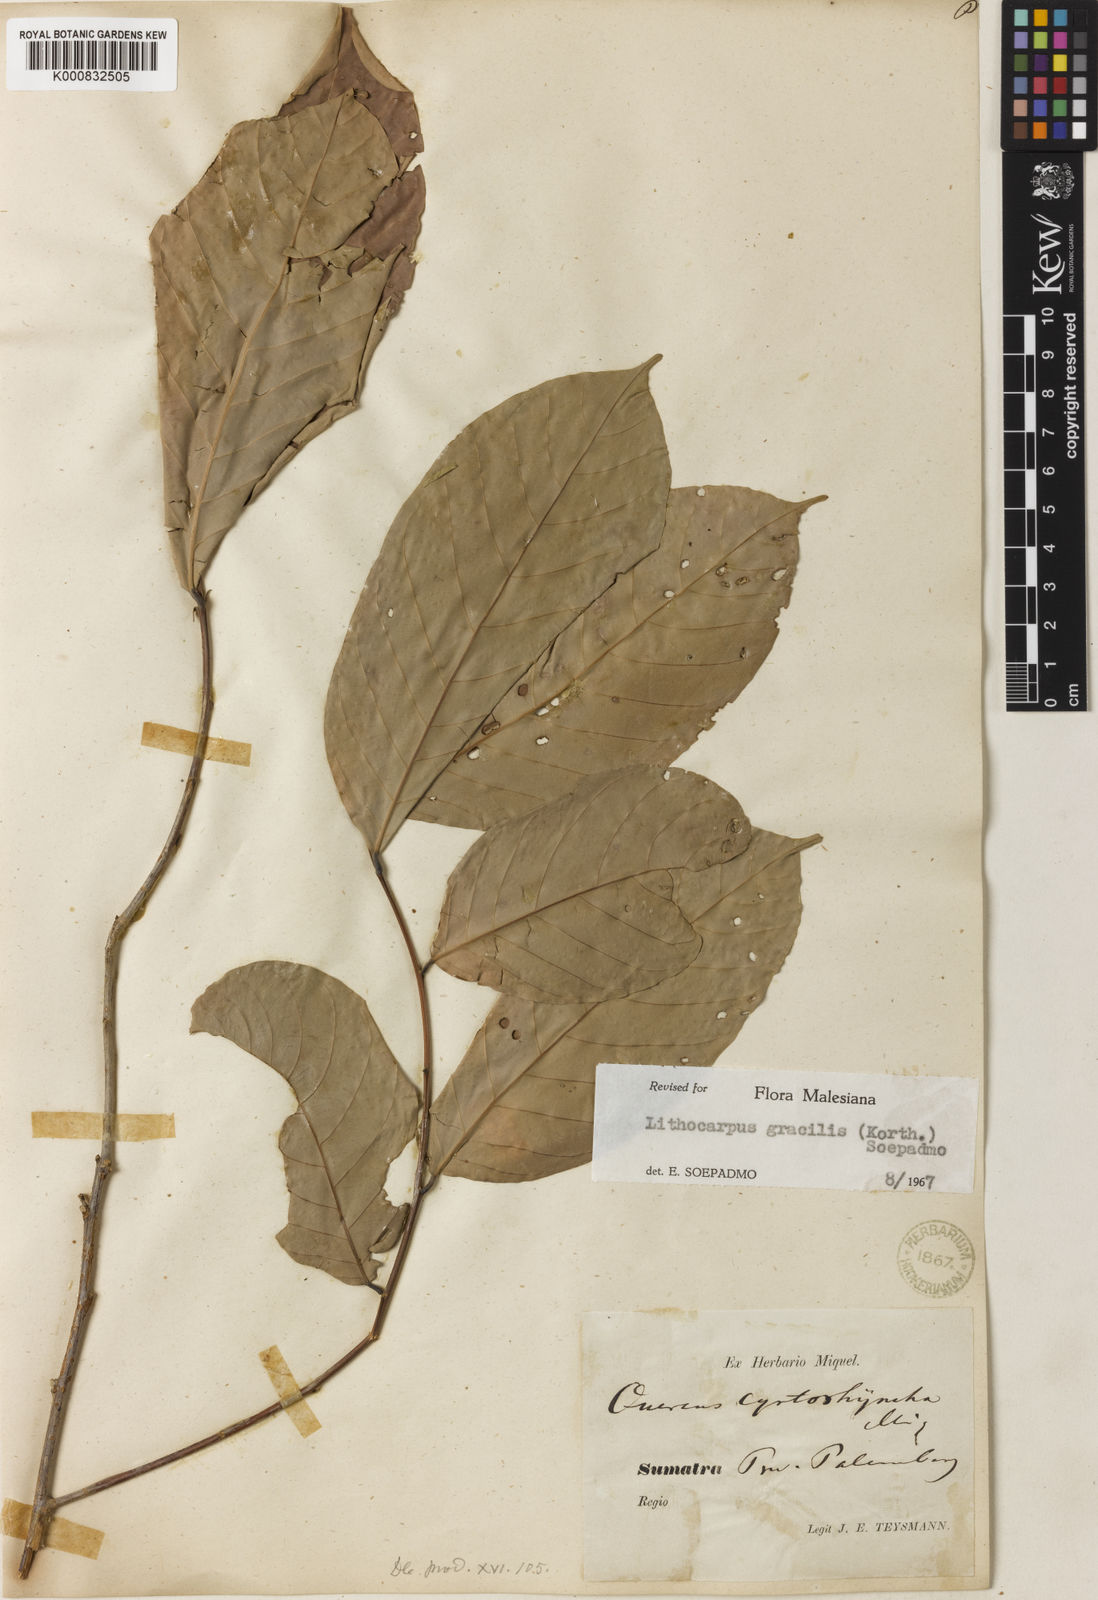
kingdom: Plantae
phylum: Tracheophyta
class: Magnoliopsida
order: Fagales
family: Fagaceae
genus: Lithocarpus
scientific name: Lithocarpus gracilis
